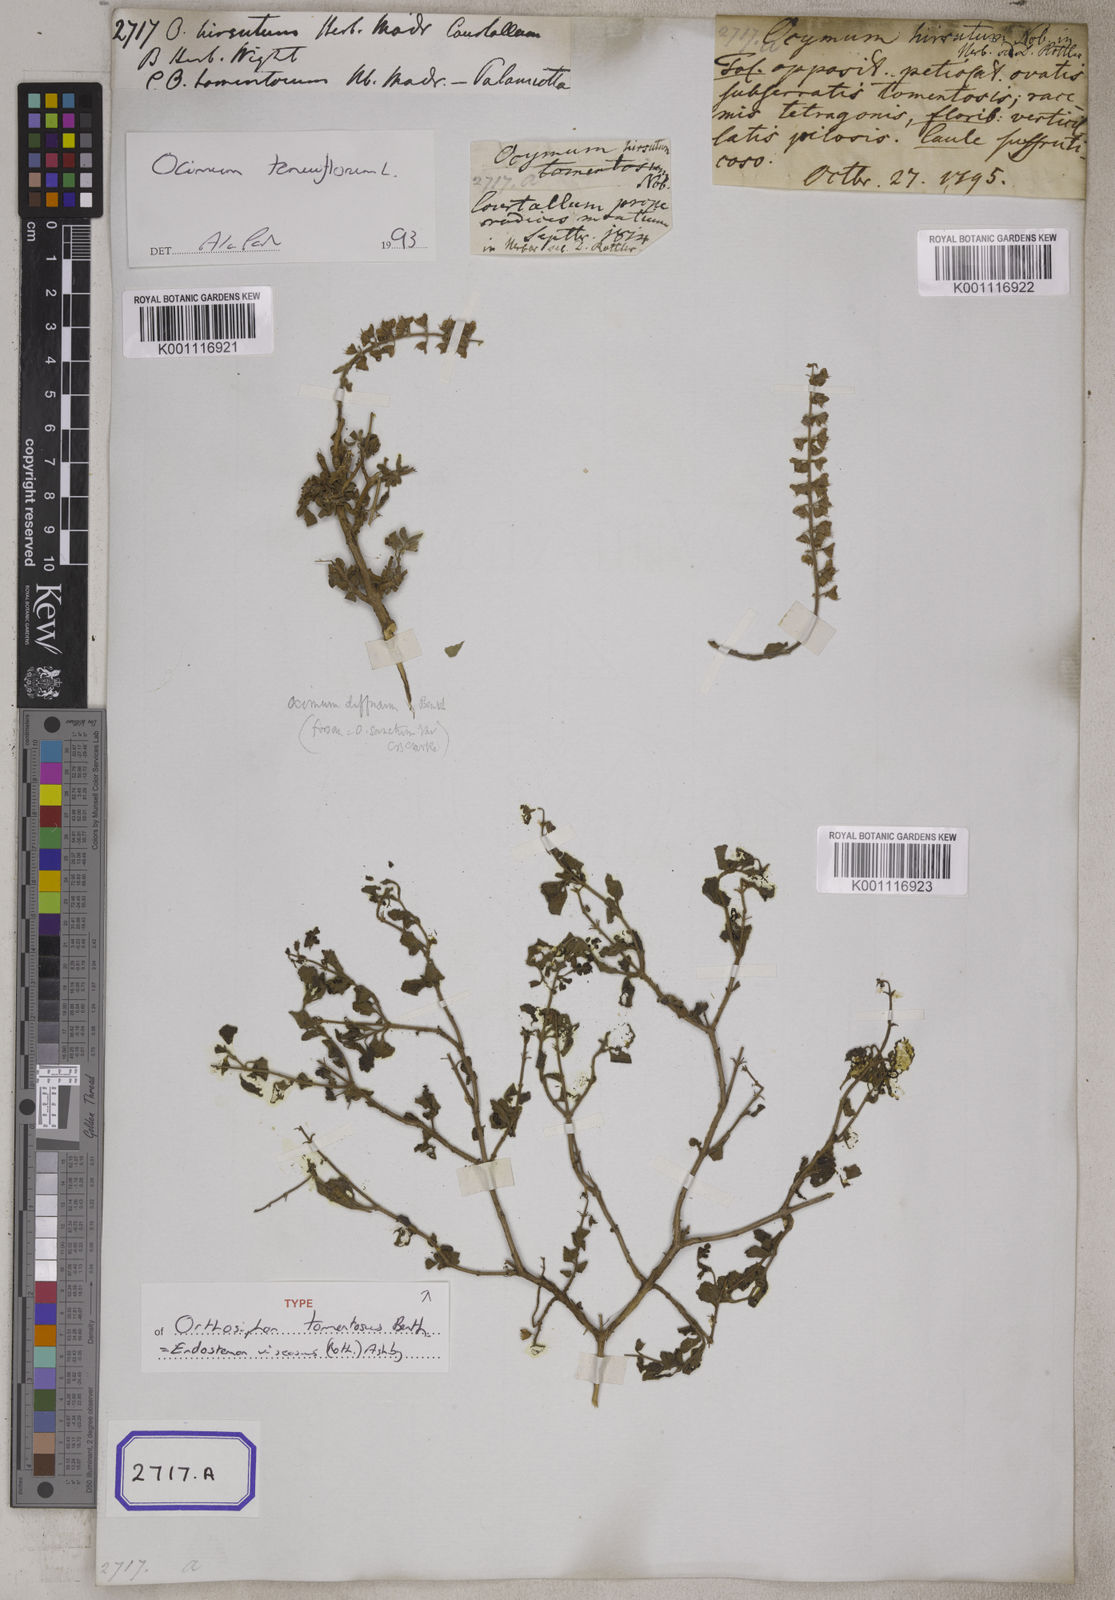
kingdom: Plantae
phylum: Tracheophyta
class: Magnoliopsida
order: Lamiales
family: Lamiaceae
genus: Ocimum
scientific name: Ocimum
